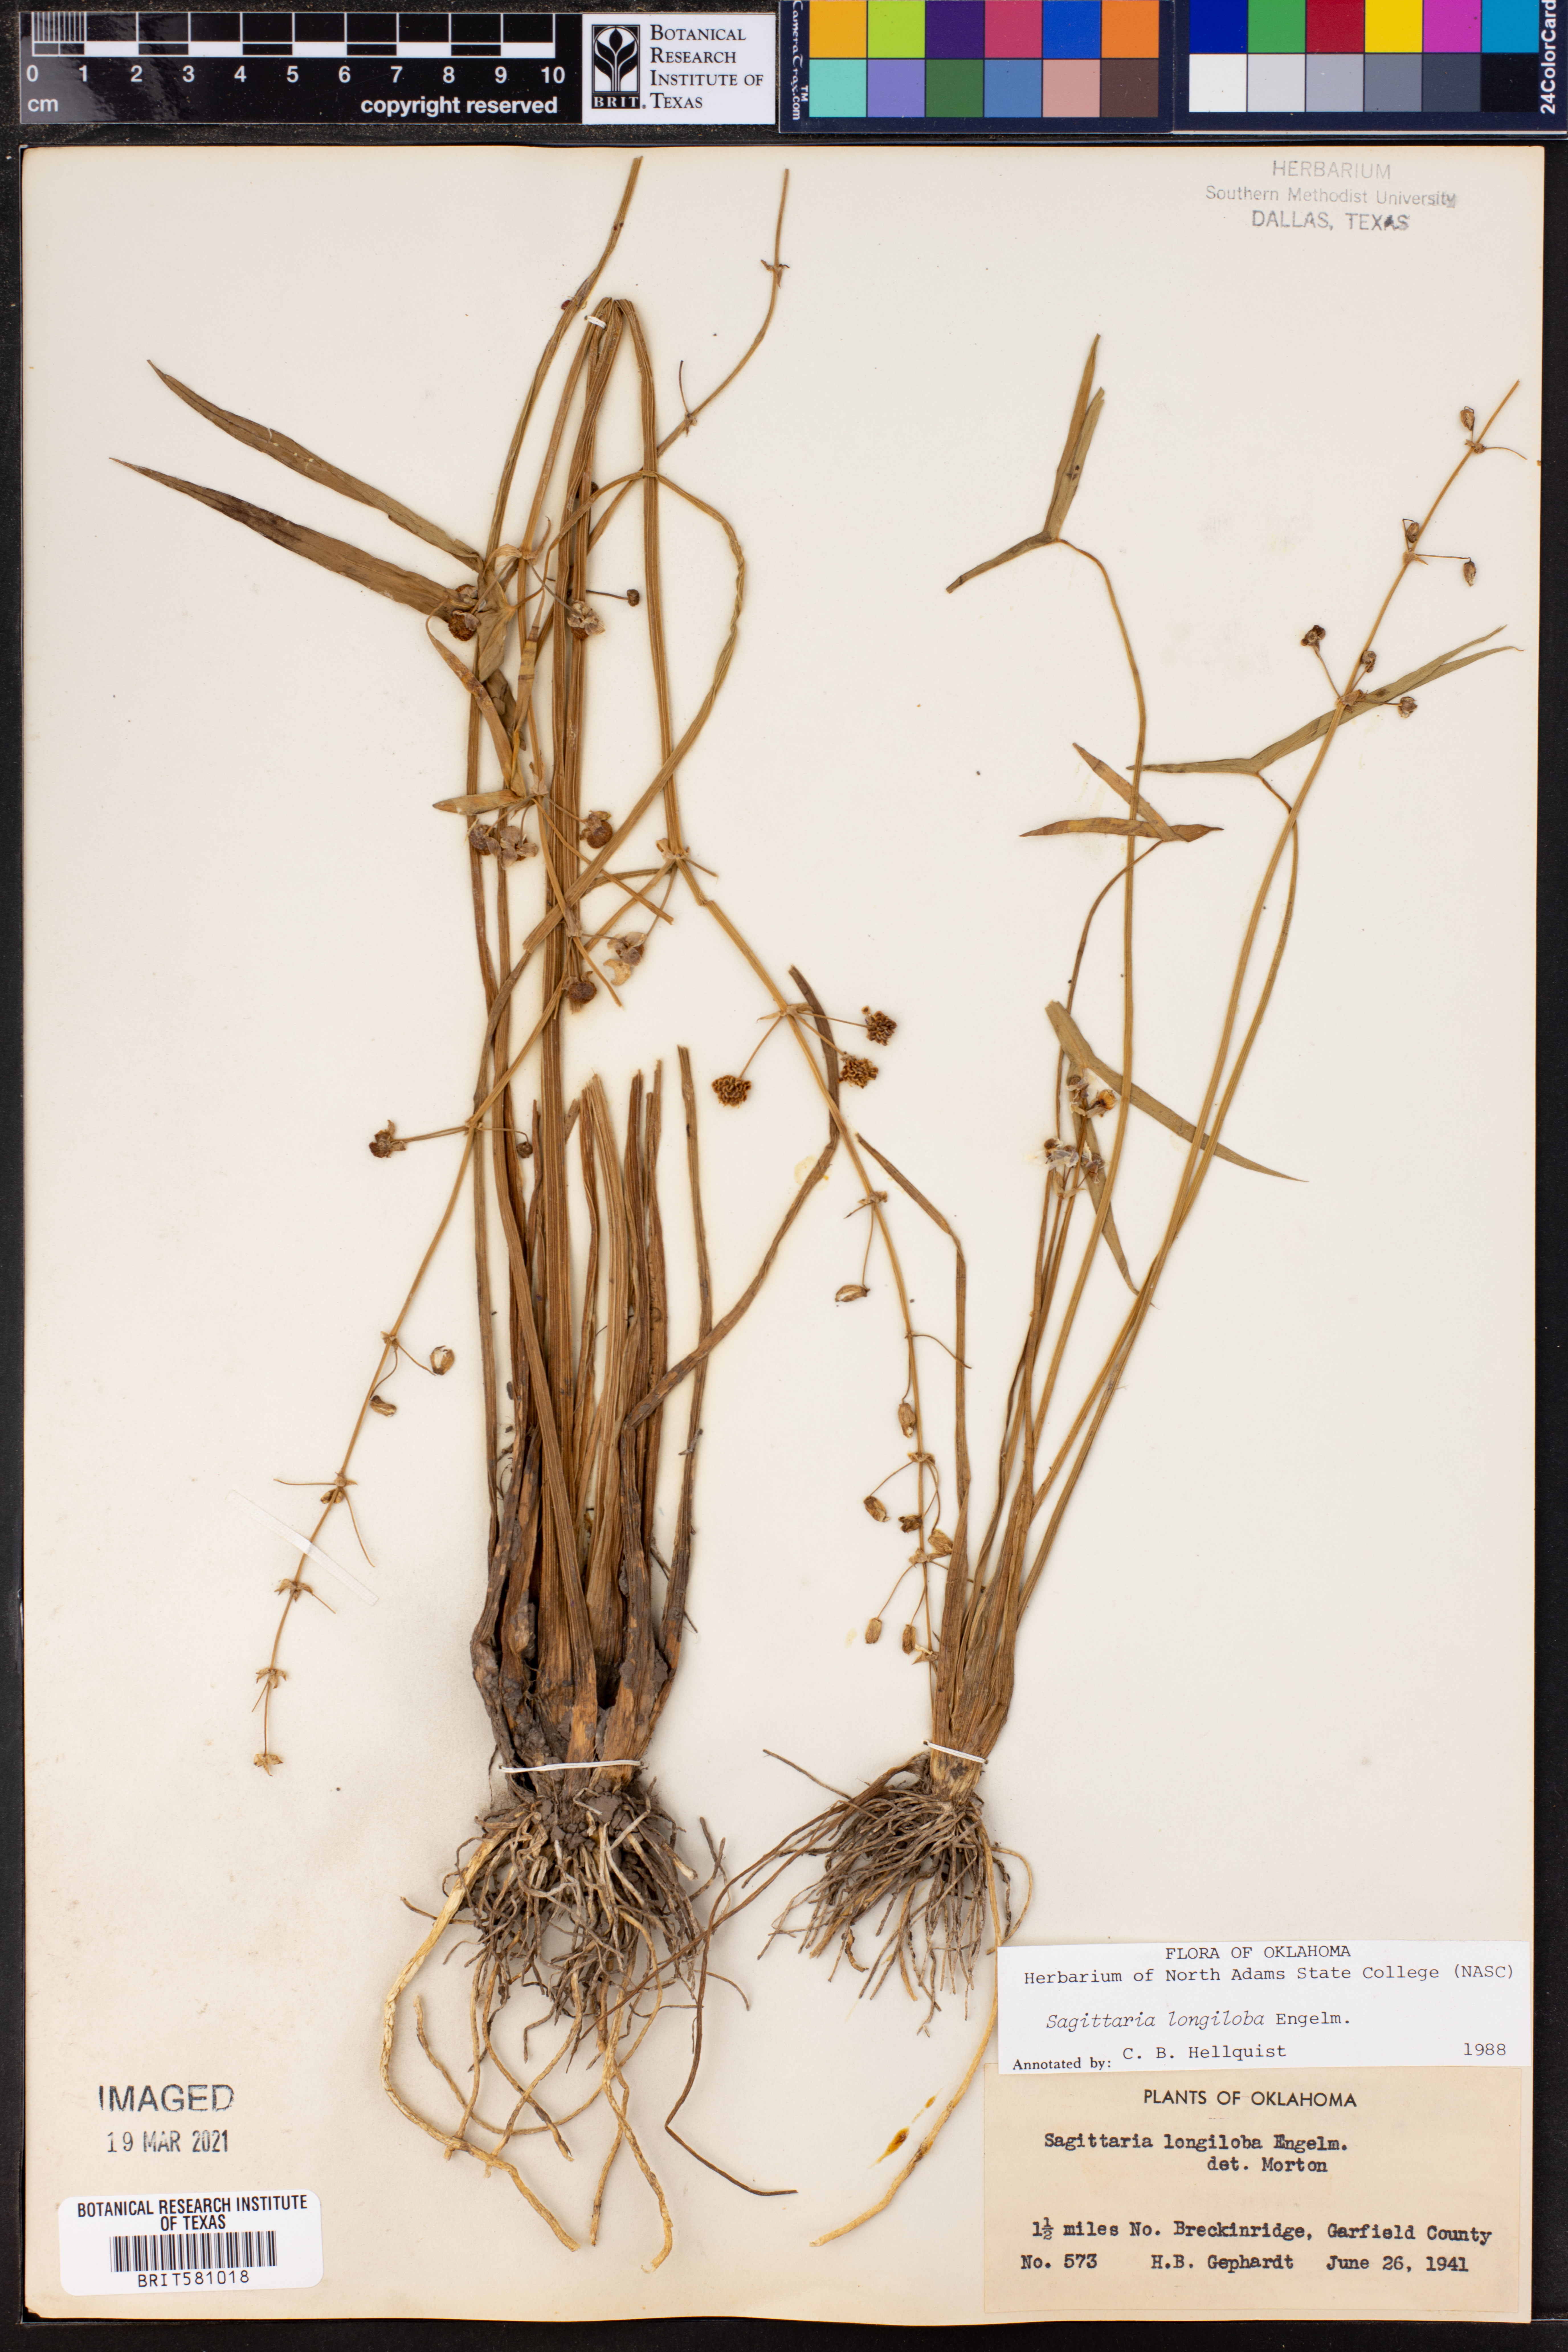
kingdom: Plantae
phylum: Tracheophyta
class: Liliopsida
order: Alismatales
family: Alismataceae
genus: Sagittaria
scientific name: Sagittaria longiloba
